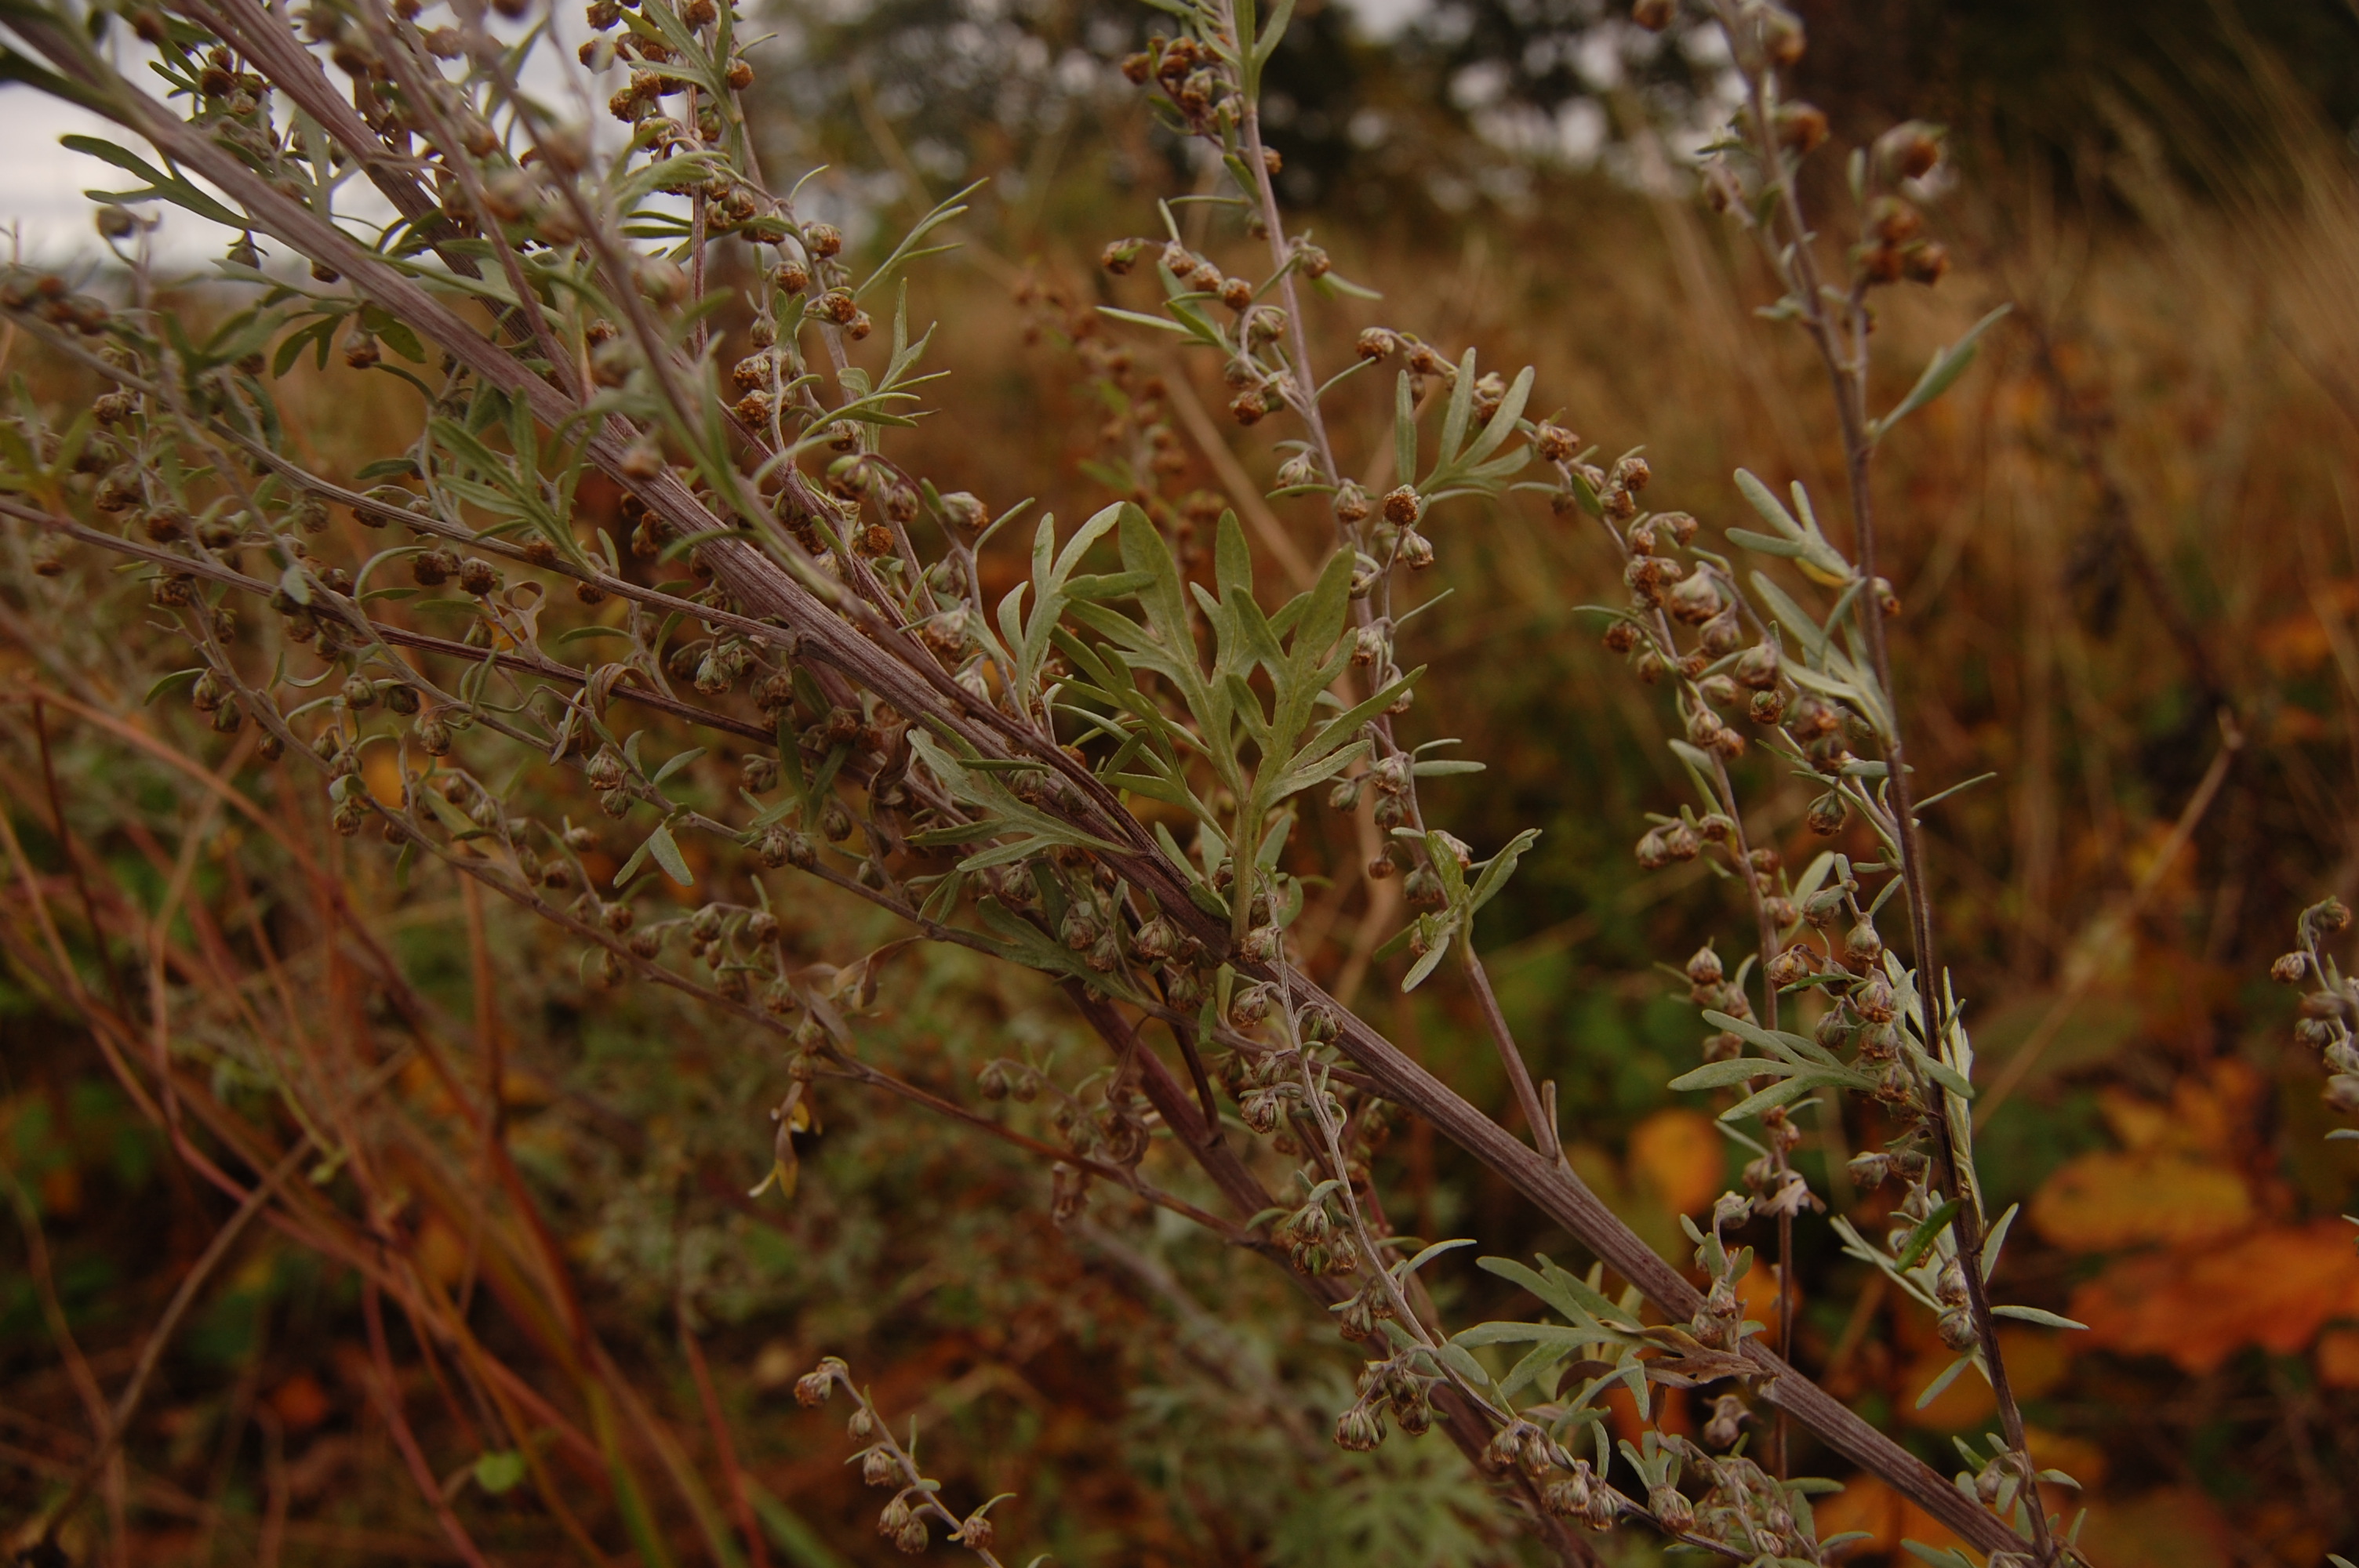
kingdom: Plantae
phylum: Tracheophyta
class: Magnoliopsida
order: Asterales
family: Asteraceae
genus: Artemisia
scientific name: Artemisia absinthium
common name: Wormwood
